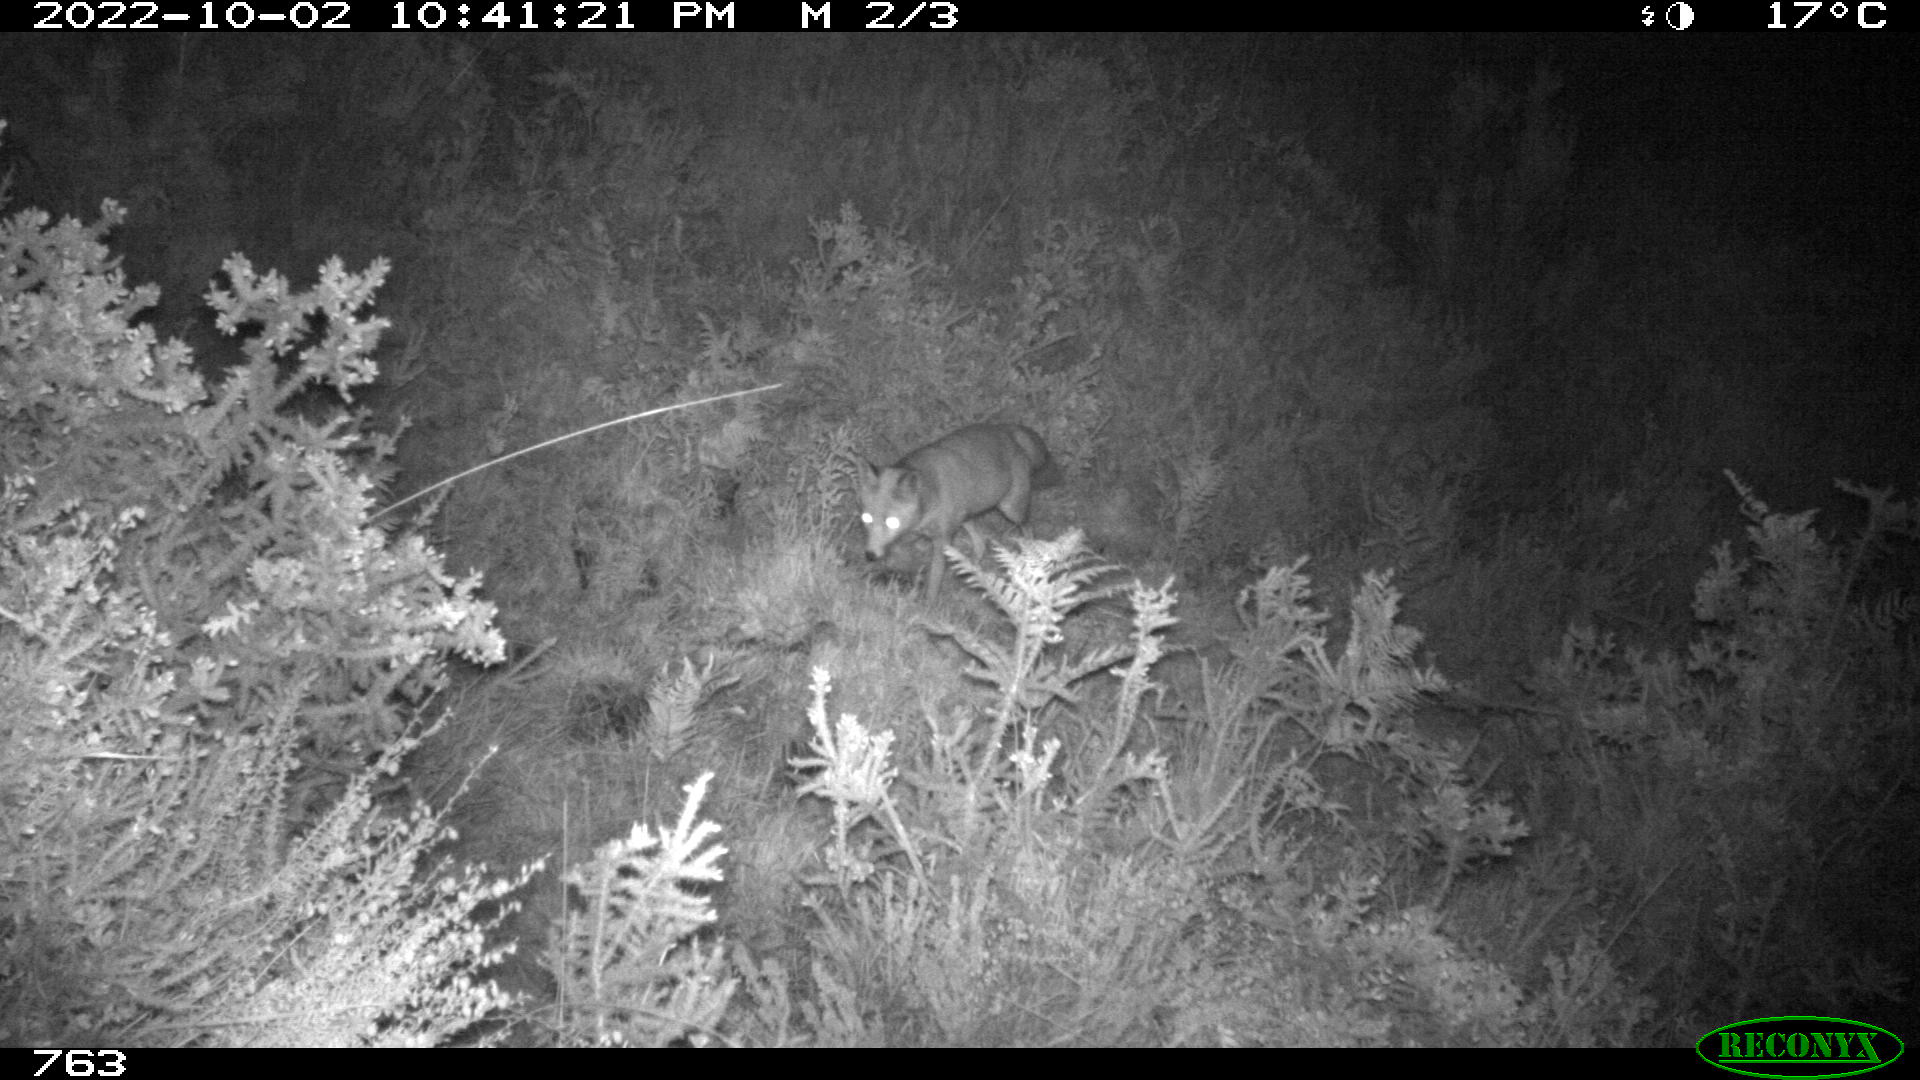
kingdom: Animalia
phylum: Chordata
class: Mammalia
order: Carnivora
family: Canidae
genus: Vulpes
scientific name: Vulpes vulpes
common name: Red fox
